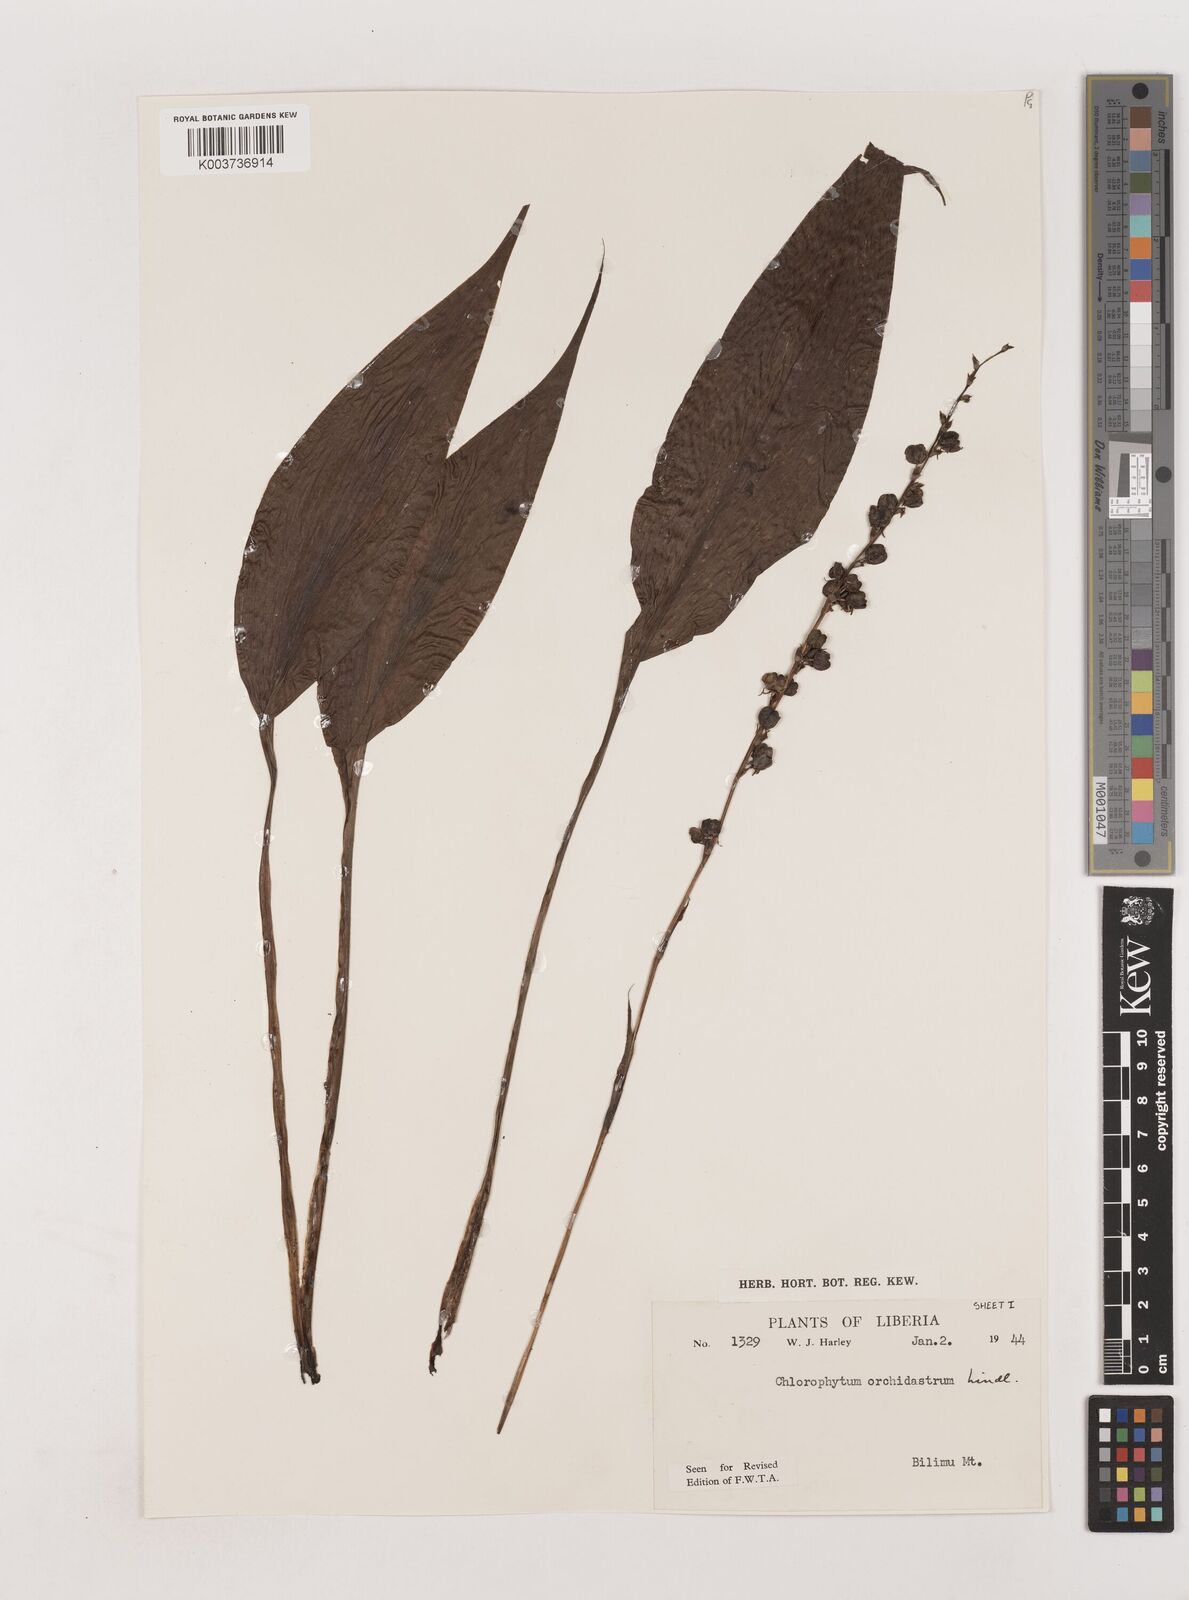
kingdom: Plantae
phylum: Tracheophyta
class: Liliopsida
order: Asparagales
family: Asparagaceae
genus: Chlorophytum
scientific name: Chlorophytum orchidastrum
